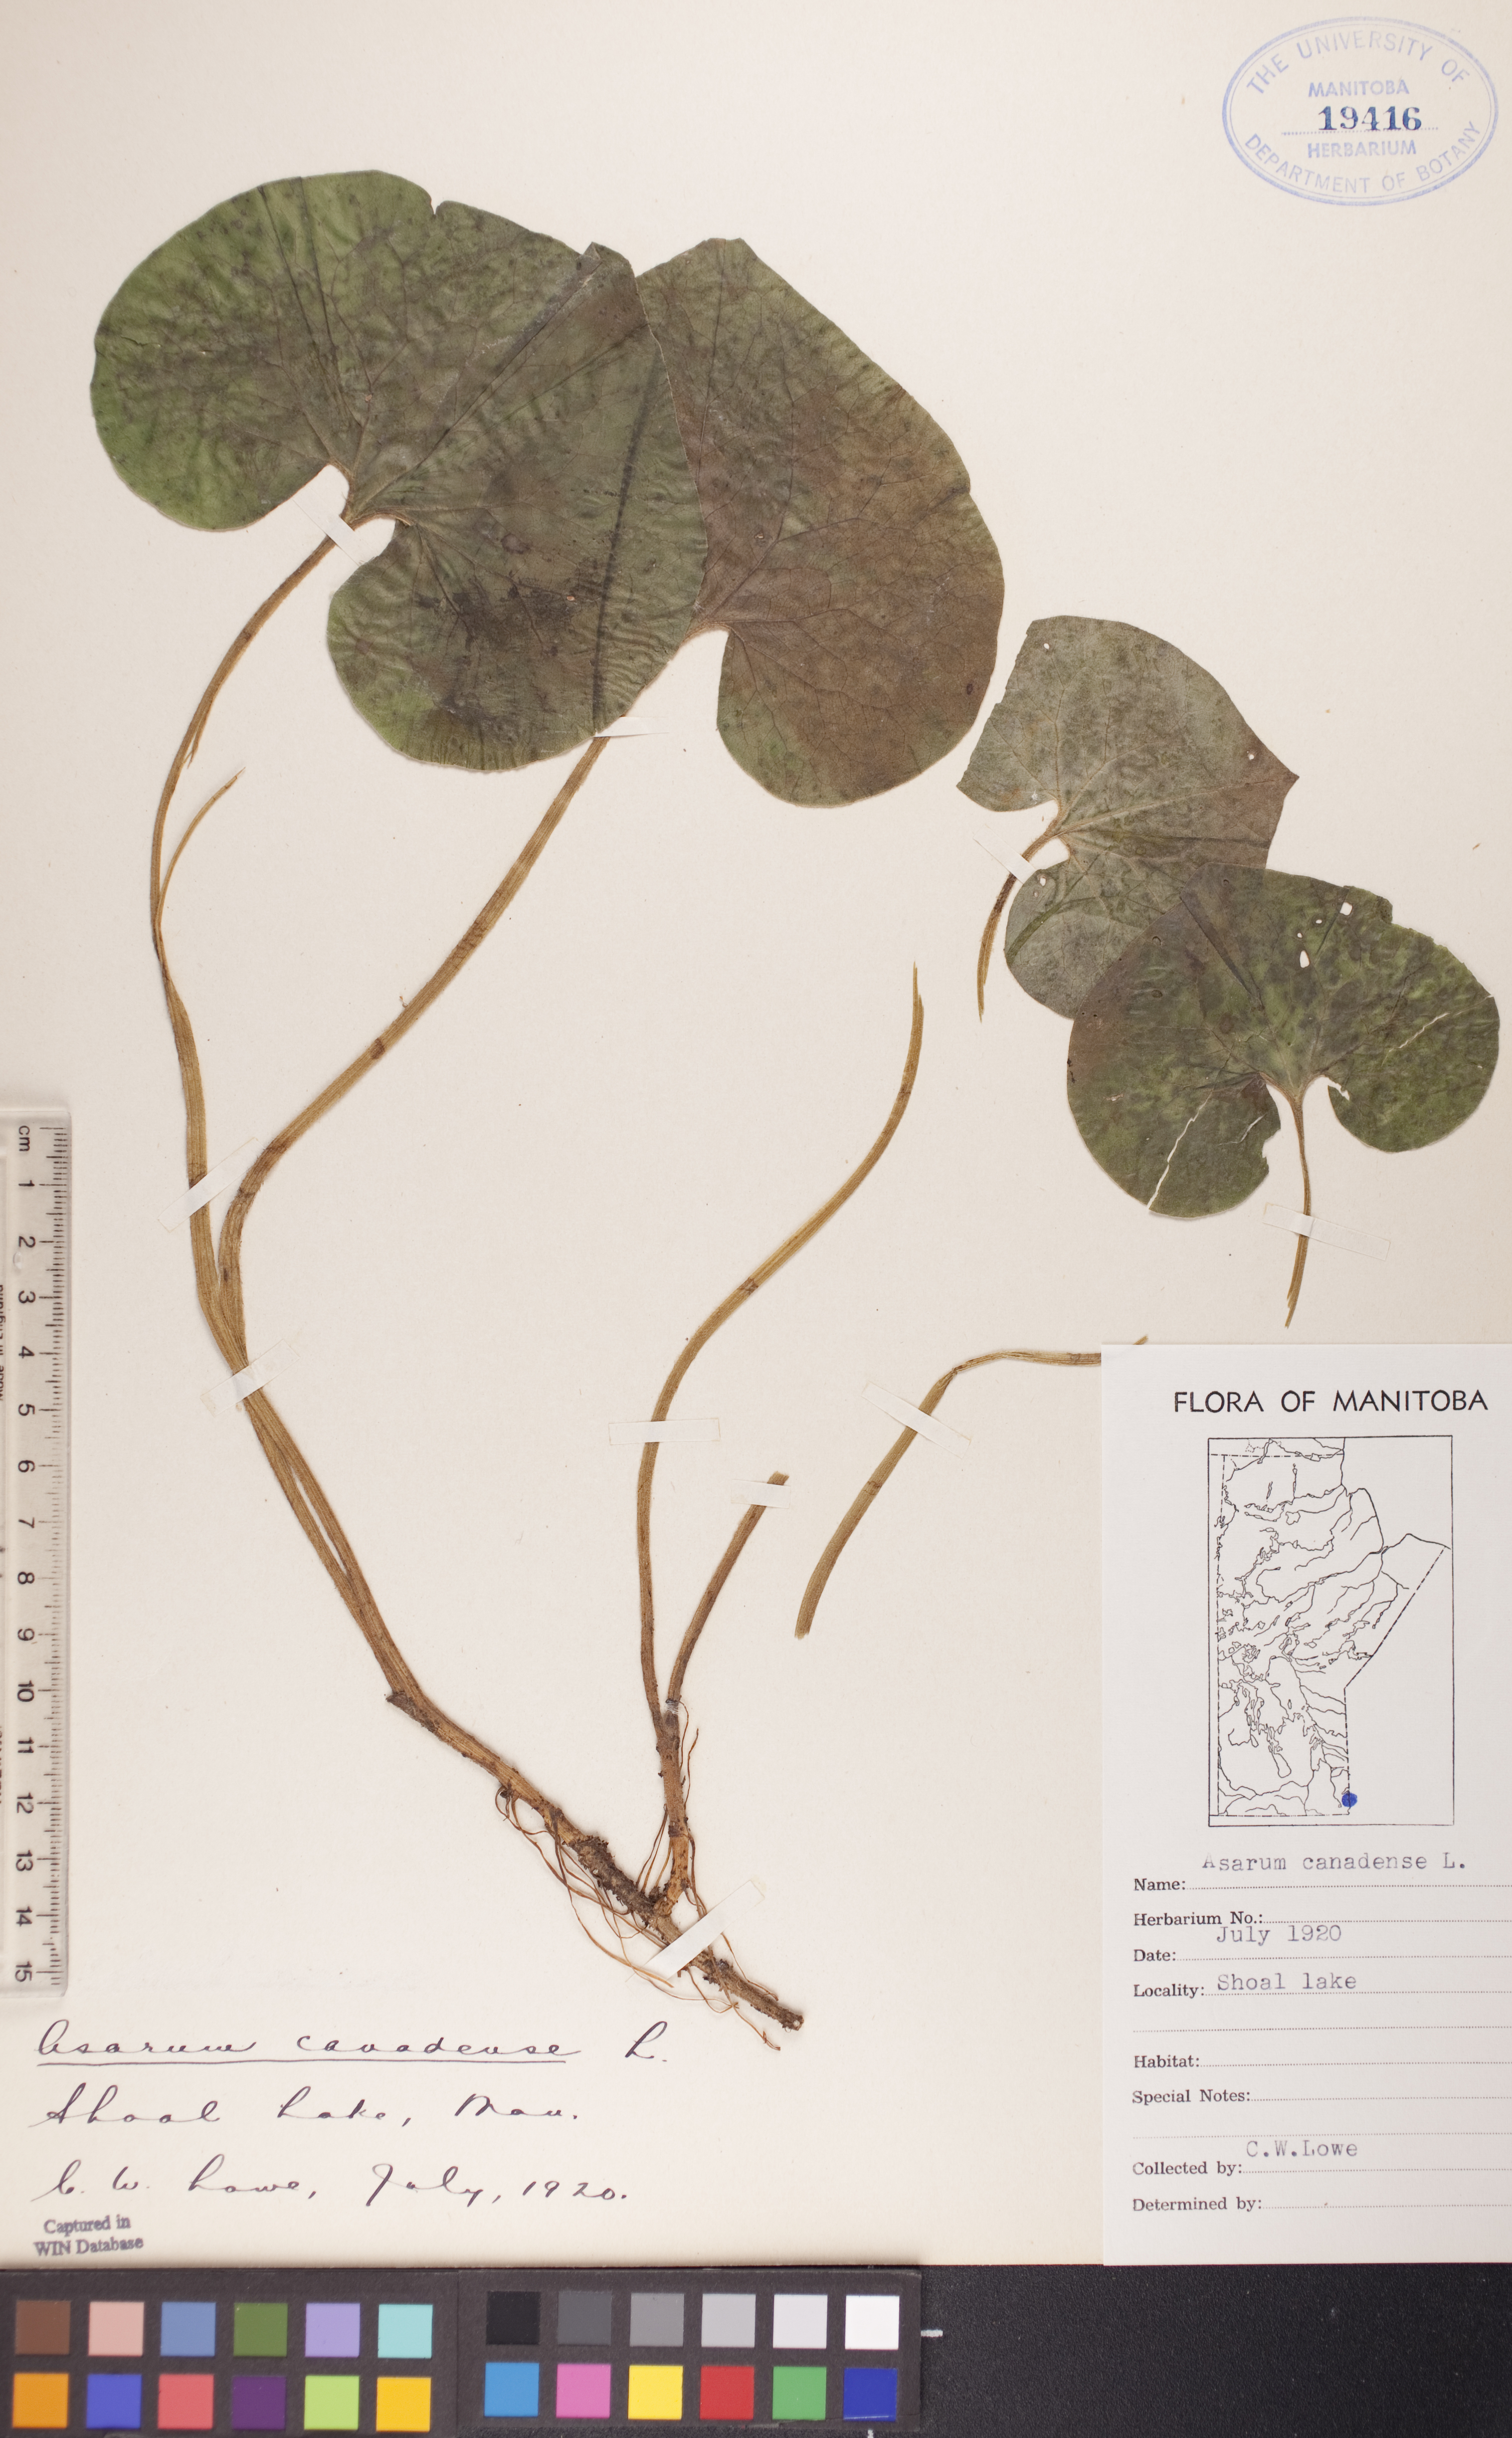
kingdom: Plantae
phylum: Tracheophyta
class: Magnoliopsida
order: Piperales
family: Aristolochiaceae
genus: Asarum
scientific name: Asarum canadense
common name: Wild ginger
